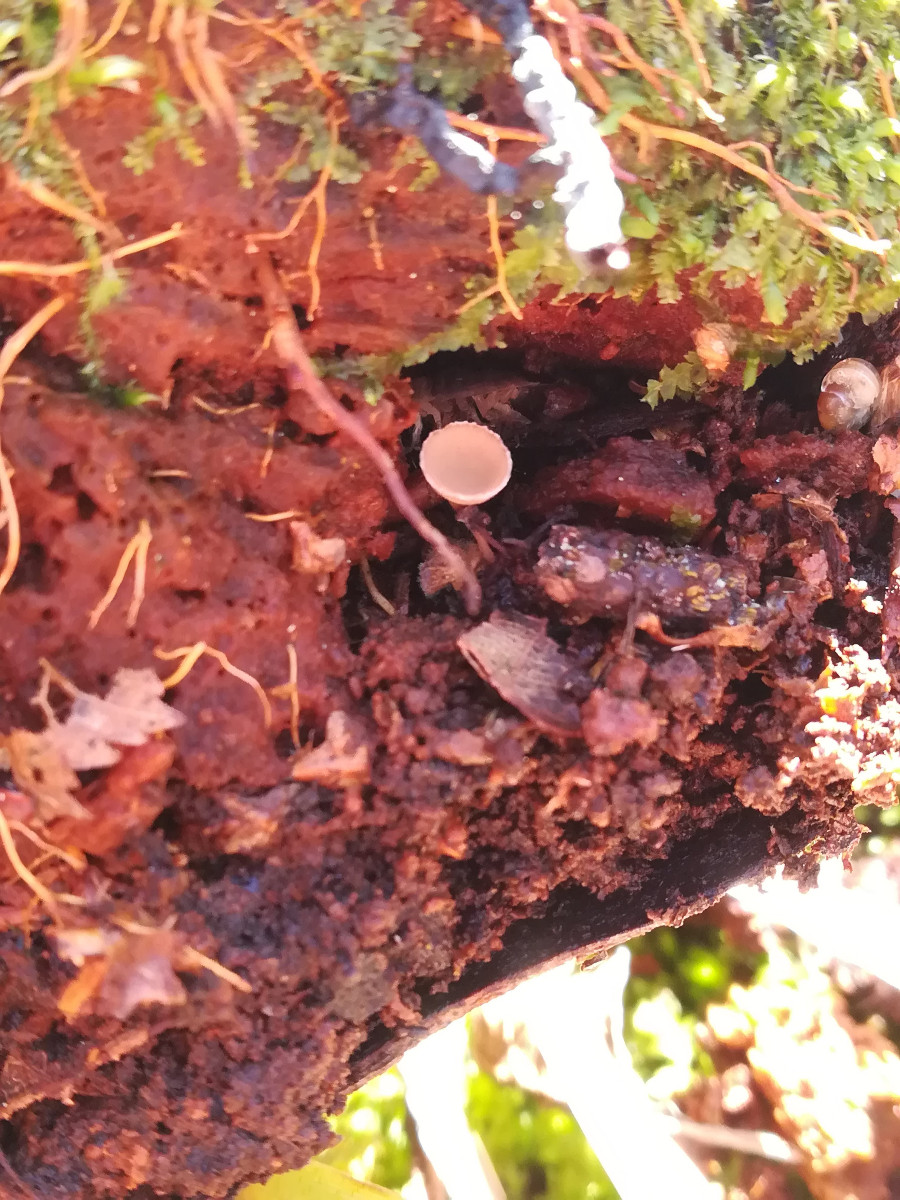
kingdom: Fungi
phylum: Ascomycota
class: Leotiomycetes
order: Helotiales
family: Sclerotiniaceae
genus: Ciboria
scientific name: Ciboria amentacea
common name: ellerakle-knoldskive
